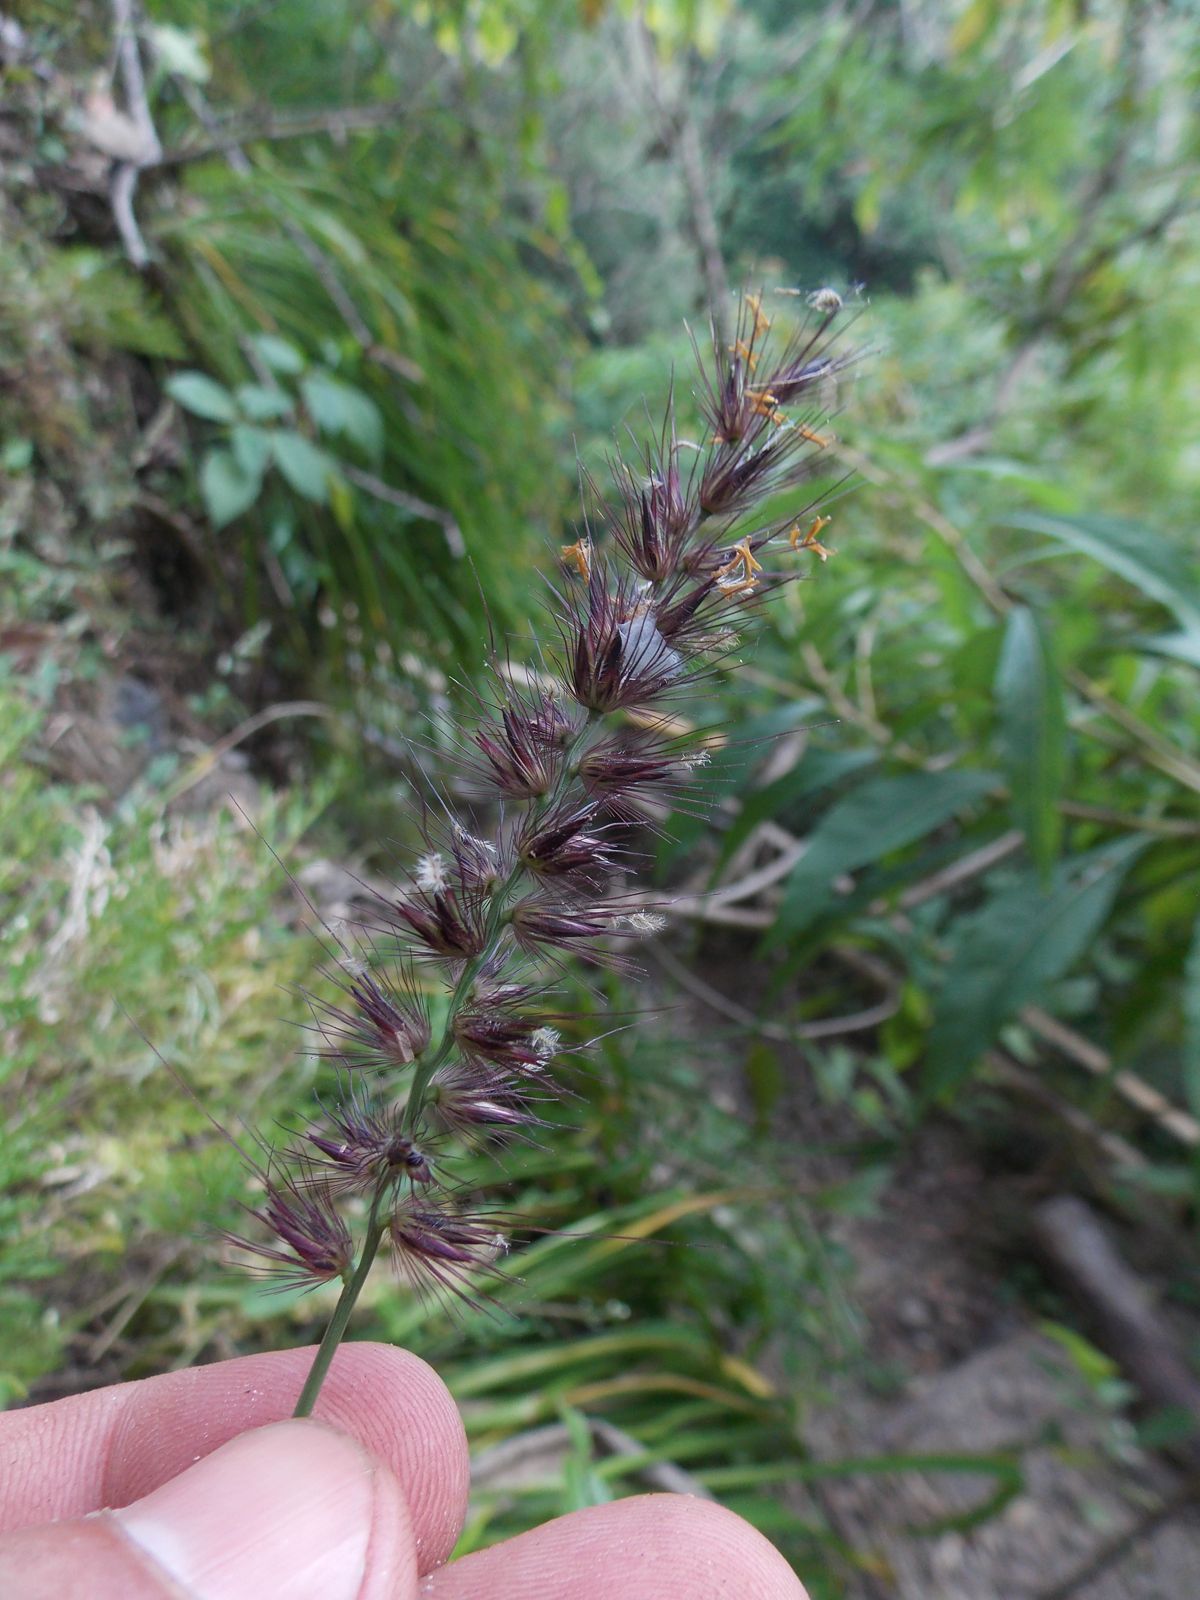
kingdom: Plantae
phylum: Tracheophyta
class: Liliopsida
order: Poales
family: Poaceae
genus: Cenchrus
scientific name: Cenchrus multiflorus
